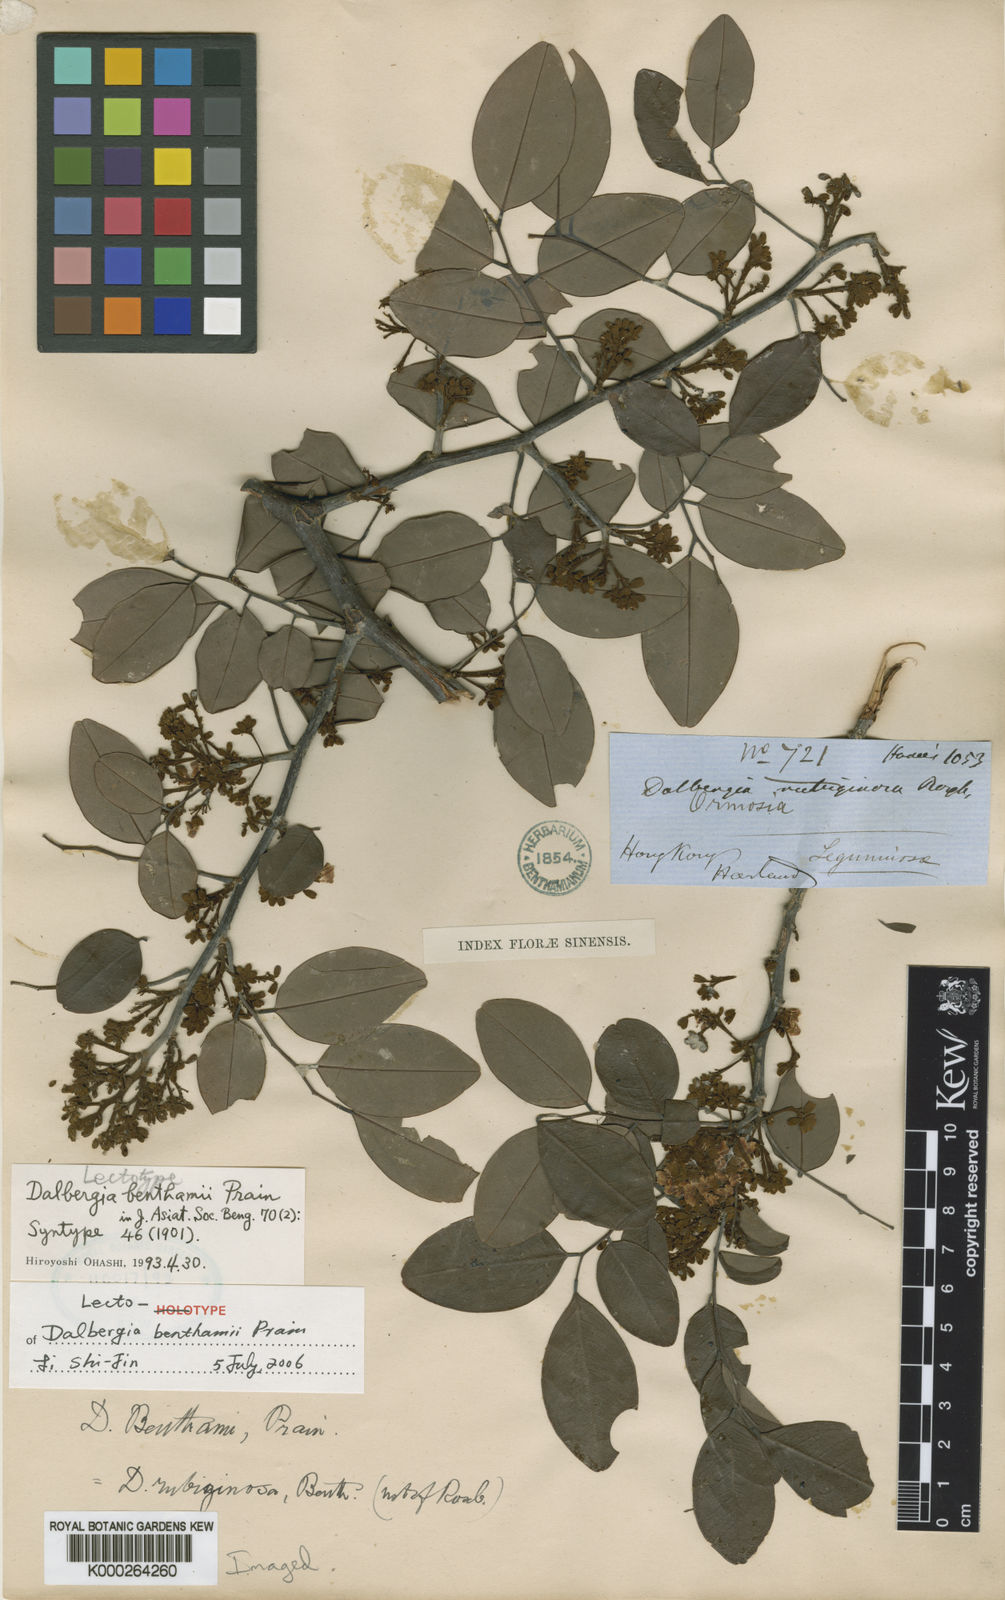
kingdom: Plantae
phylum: Tracheophyta
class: Magnoliopsida
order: Fabales
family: Fabaceae
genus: Dalbergia
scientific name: Dalbergia benthamii
